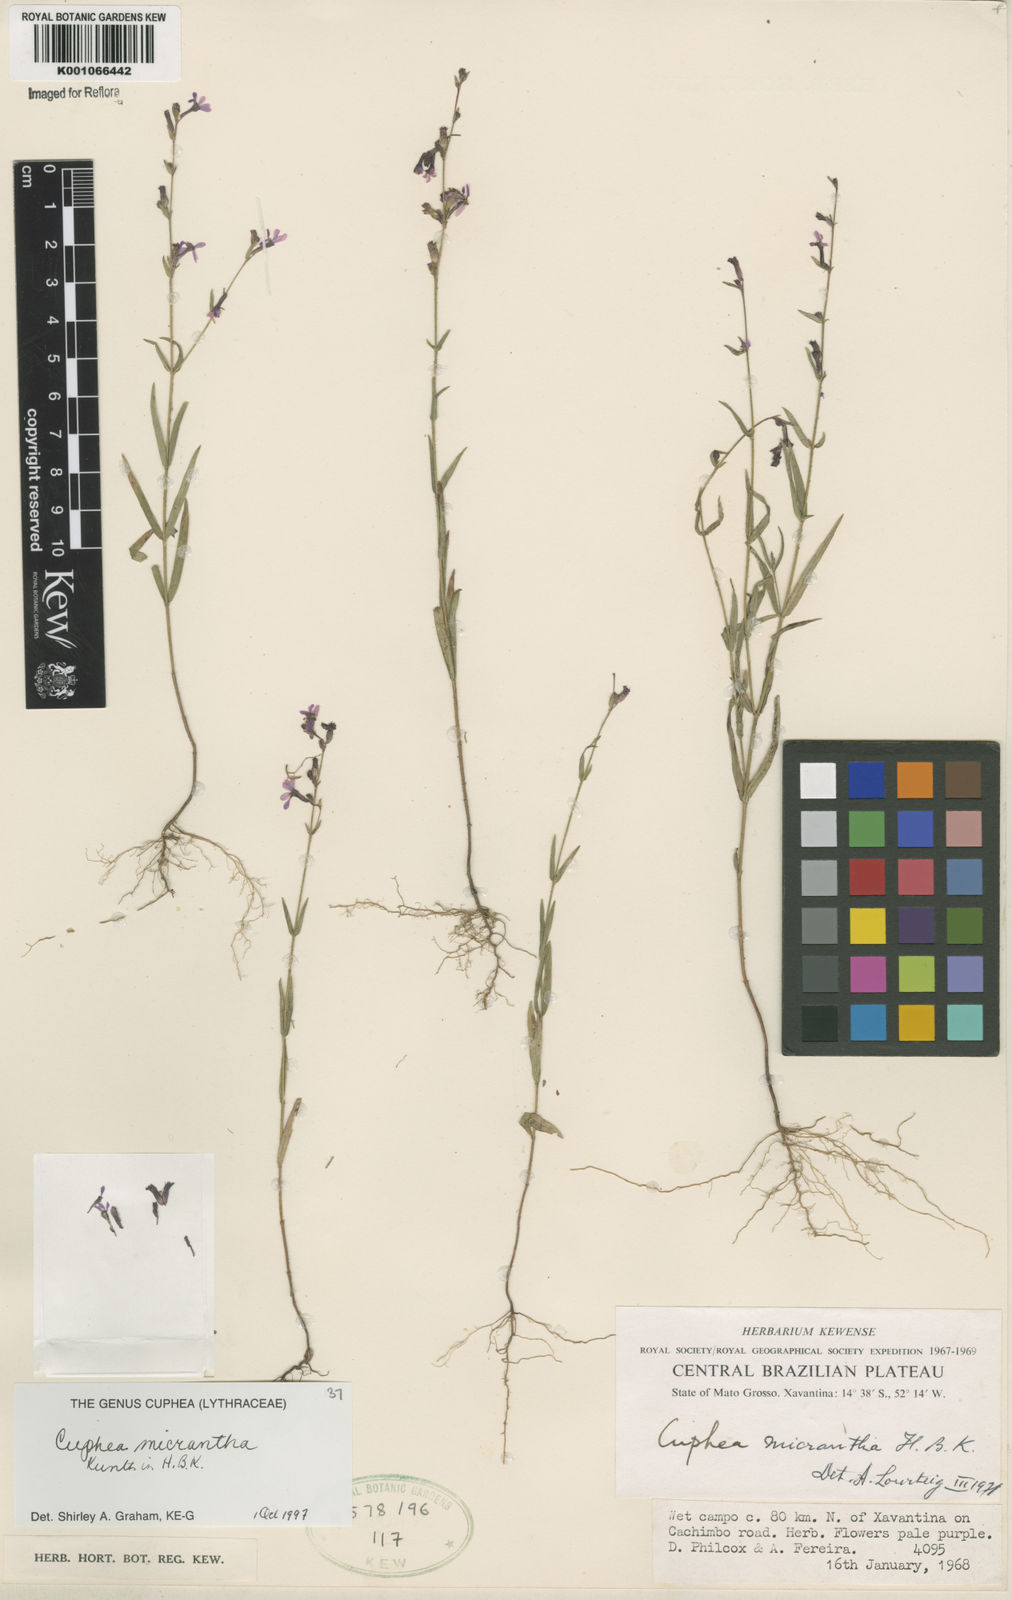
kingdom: Plantae
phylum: Tracheophyta
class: Magnoliopsida
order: Myrtales
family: Lythraceae
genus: Cuphea
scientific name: Cuphea micrantha
